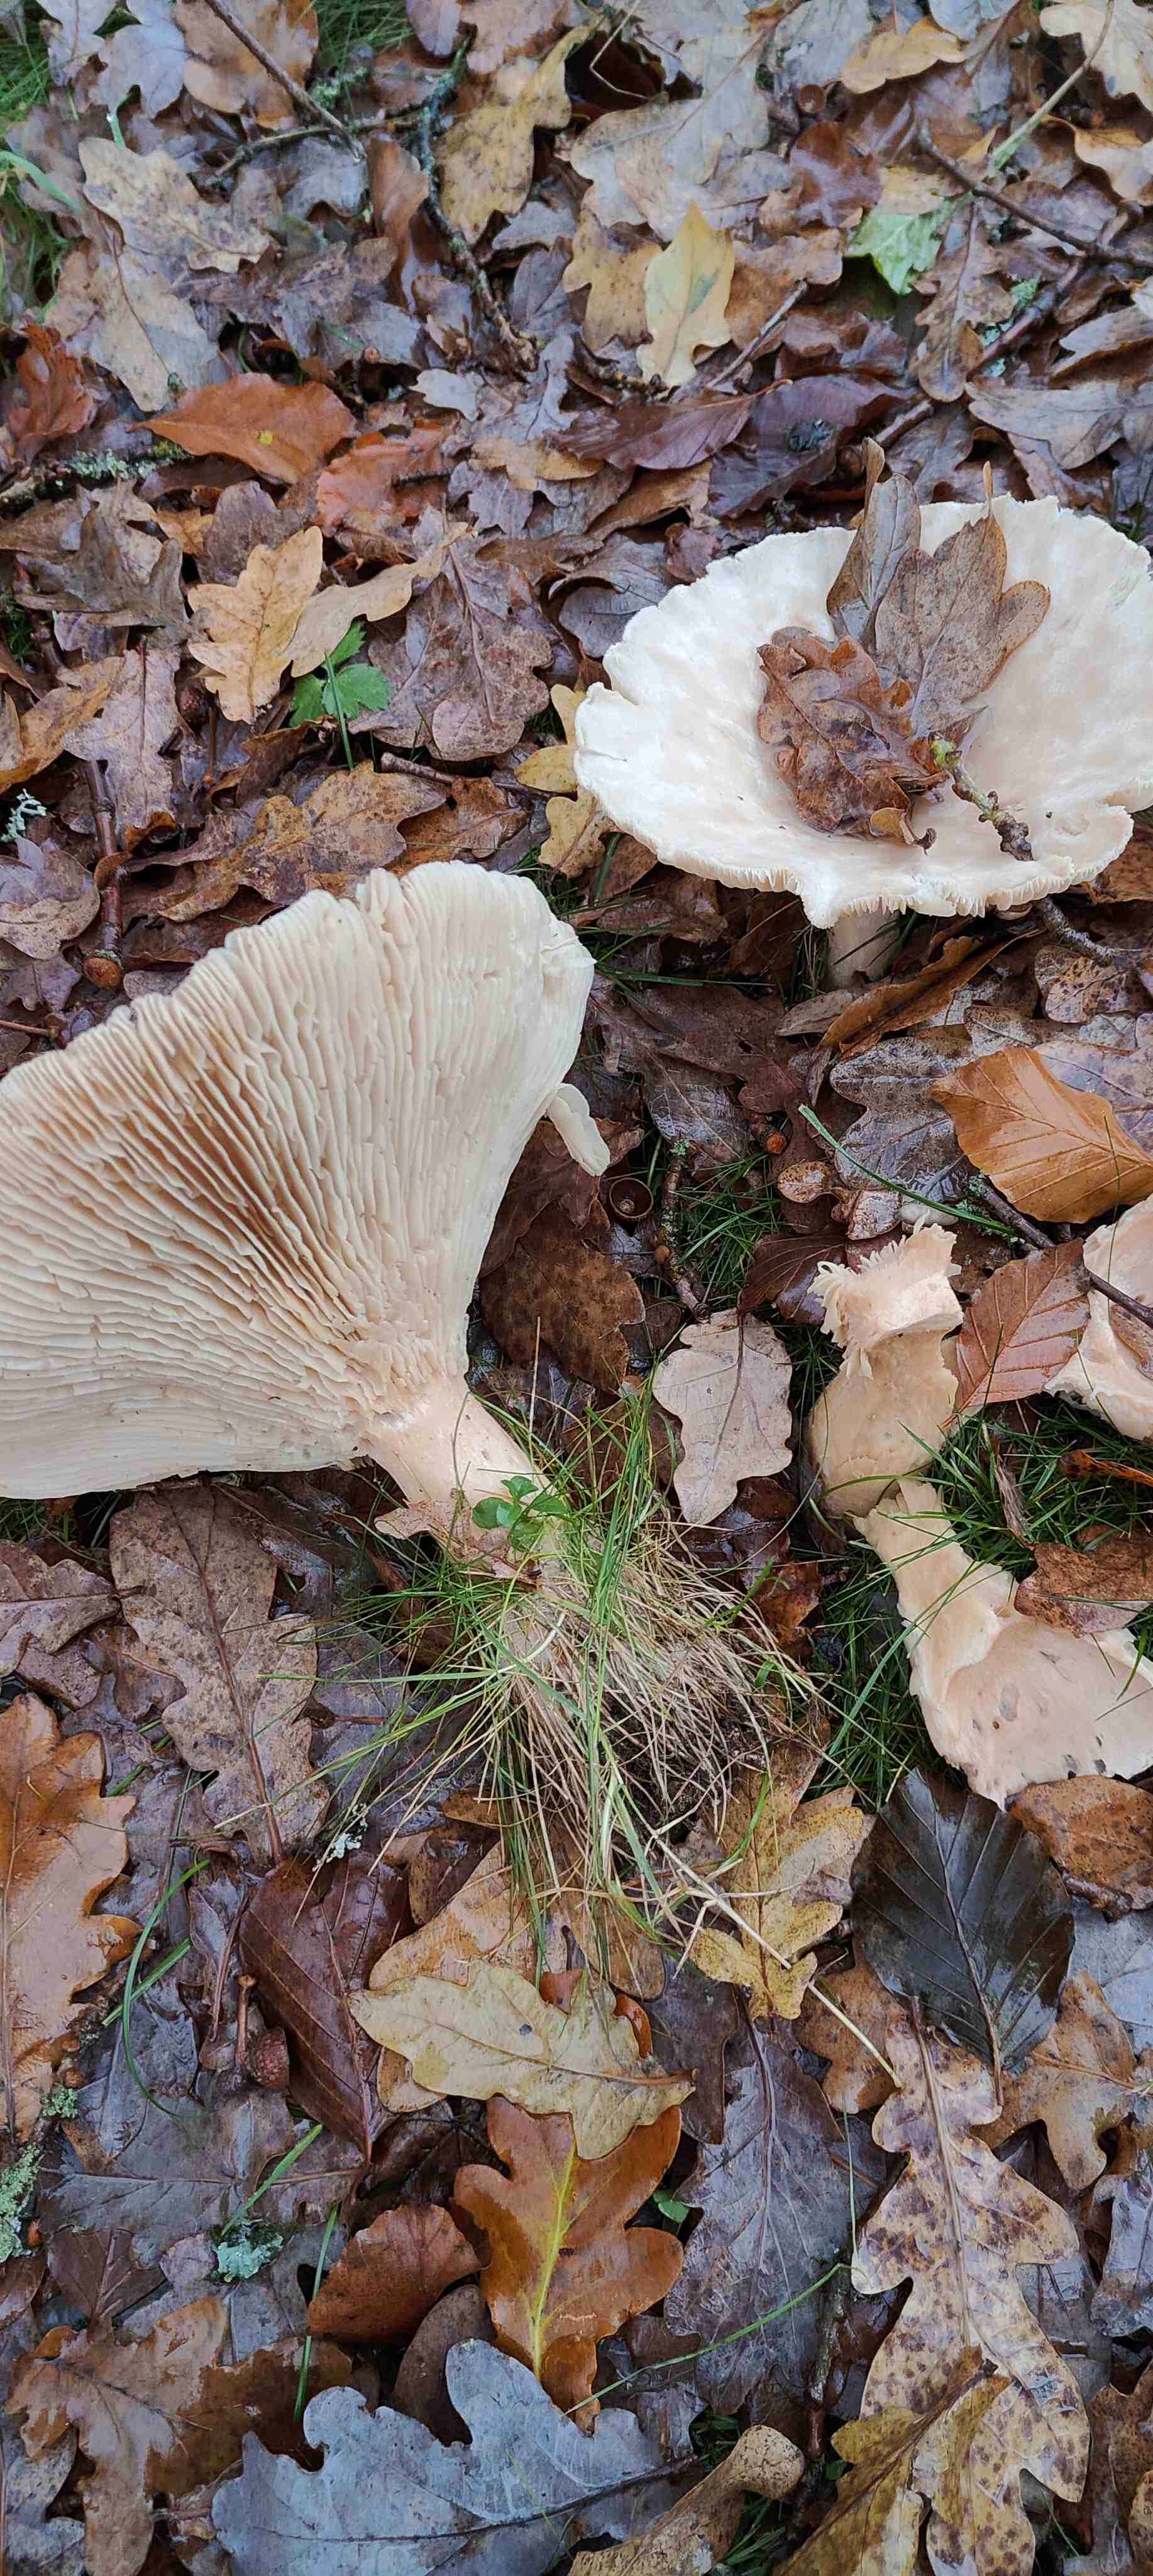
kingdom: Fungi
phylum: Basidiomycota
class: Agaricomycetes
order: Agaricales
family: Tricholomataceae
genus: Infundibulicybe
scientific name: Infundibulicybe geotropa
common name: stor tragthat
